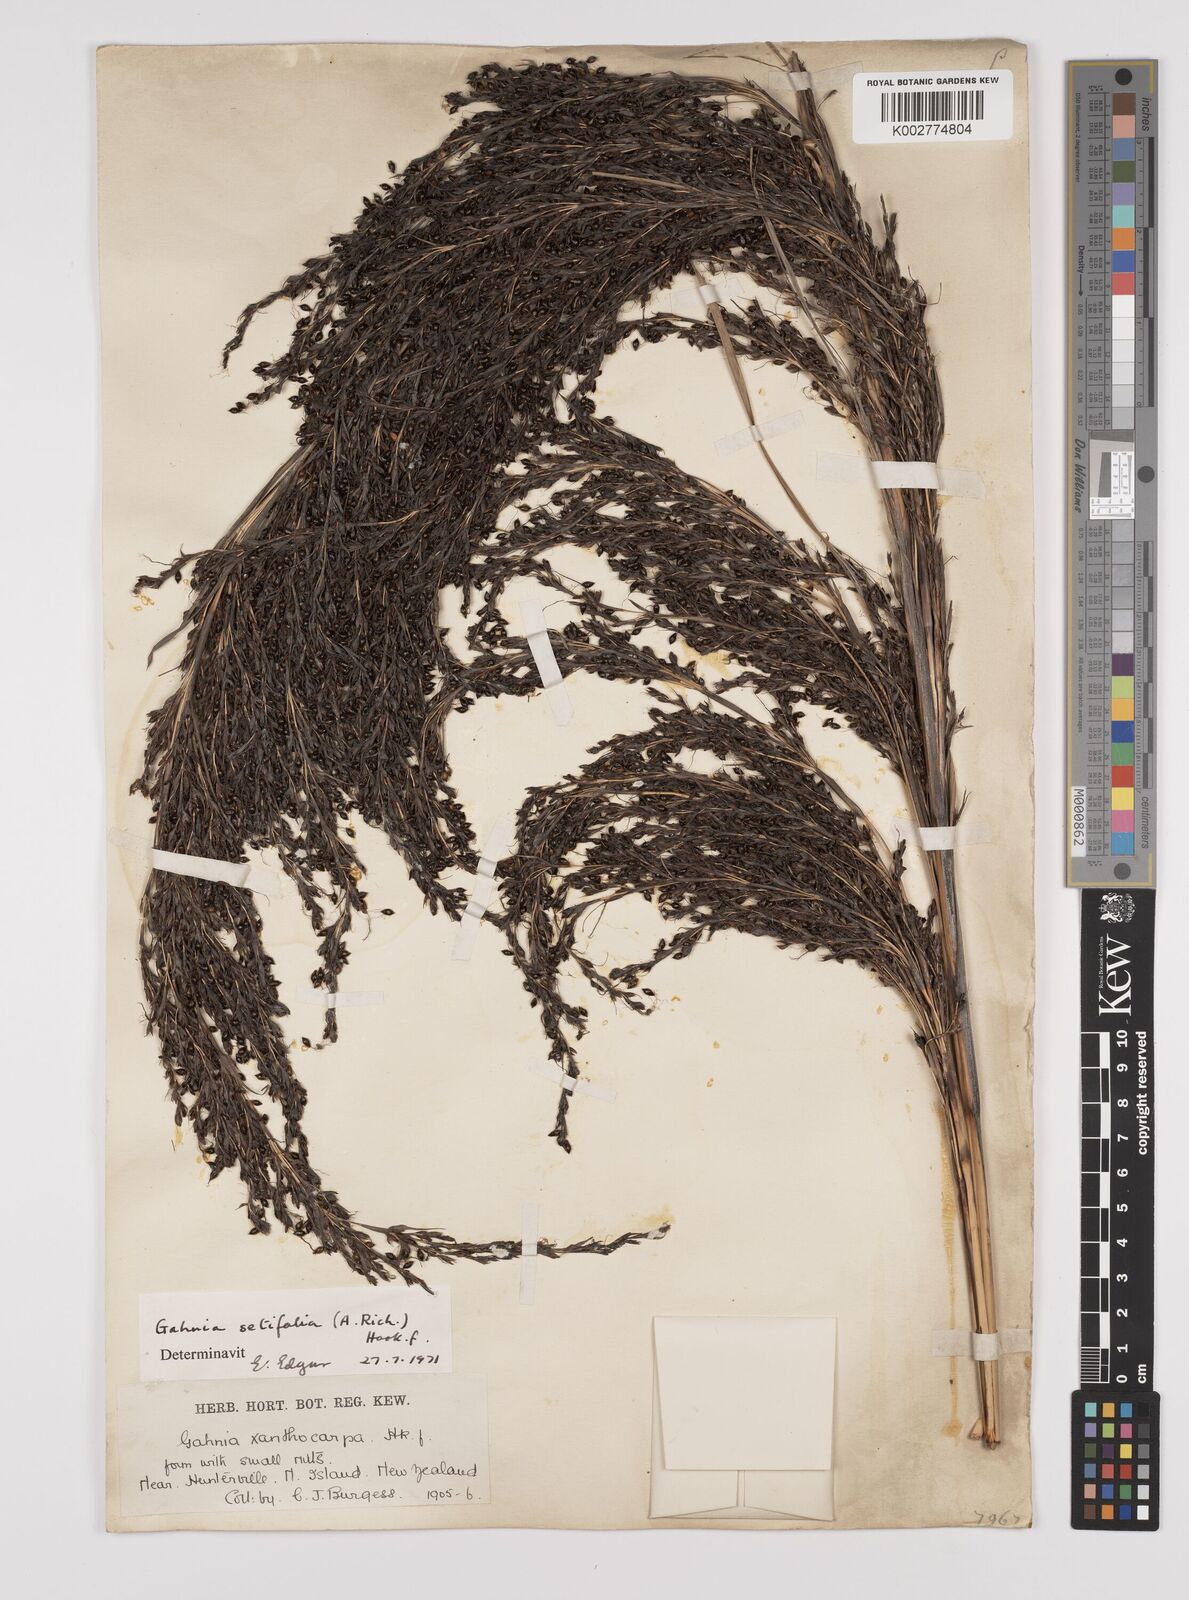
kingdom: Plantae
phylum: Tracheophyta
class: Liliopsida
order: Poales
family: Cyperaceae
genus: Gahnia
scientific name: Gahnia setifolia
